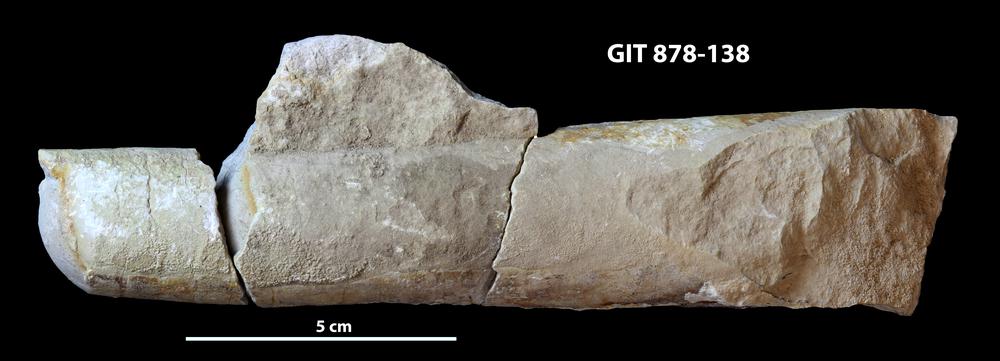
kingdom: Animalia
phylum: Mollusca
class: Cephalopoda
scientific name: Cephalopoda
